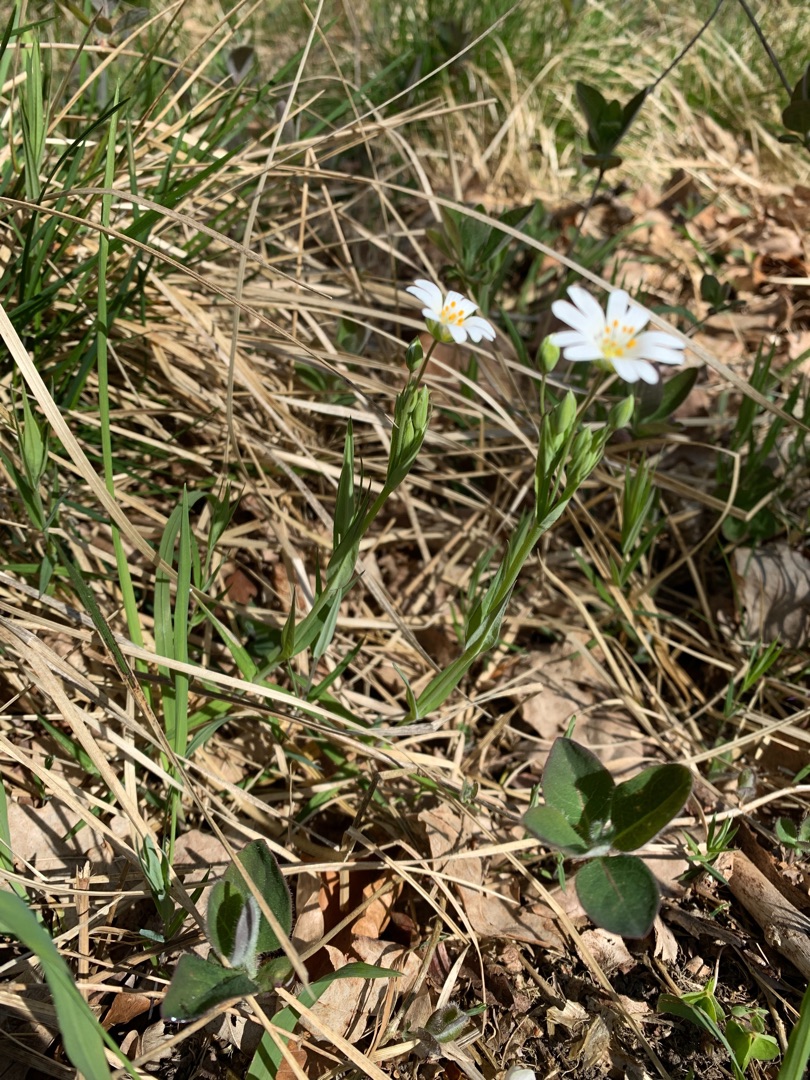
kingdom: Plantae
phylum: Tracheophyta
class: Magnoliopsida
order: Caryophyllales
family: Caryophyllaceae
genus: Rabelera
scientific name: Rabelera holostea
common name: Stor fladstjerne
